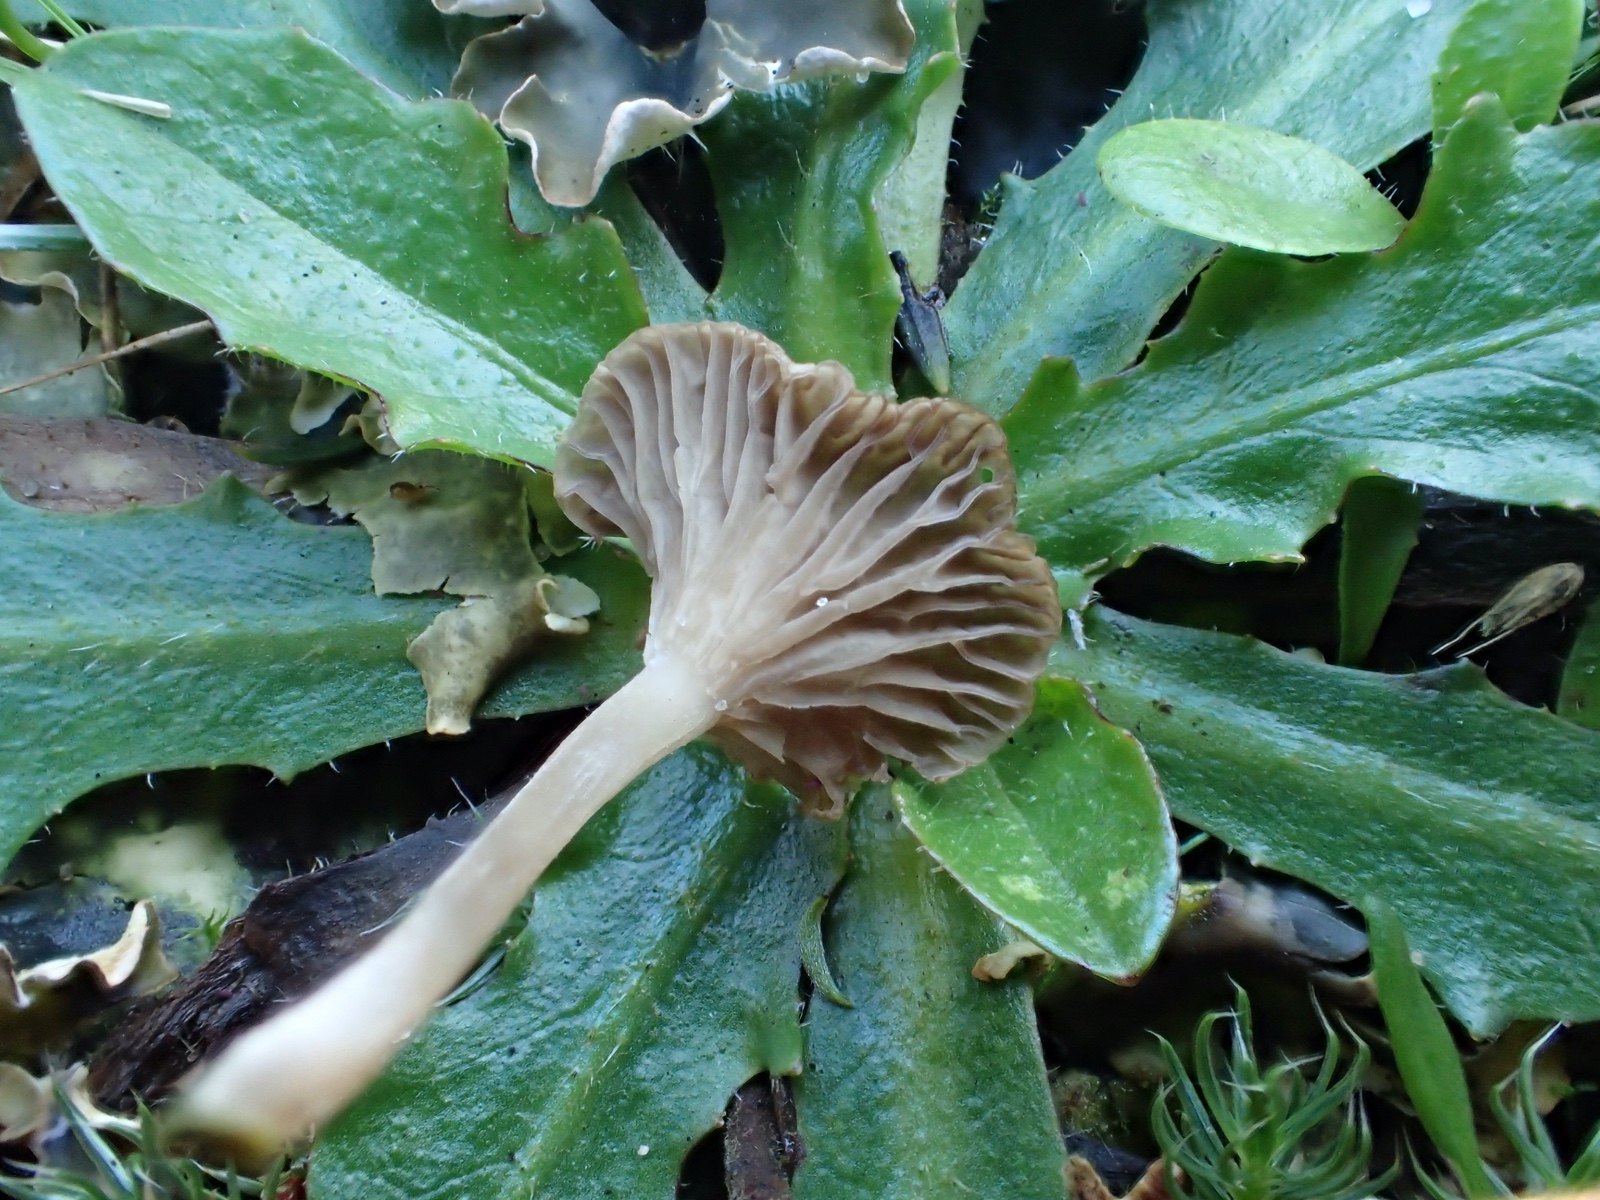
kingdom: Fungi
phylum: Basidiomycota
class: Agaricomycetes
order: Agaricales
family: Hygrophoraceae
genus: Arrhenia
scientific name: Arrhenia peltigerina
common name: skjoldlav-fontænehat
